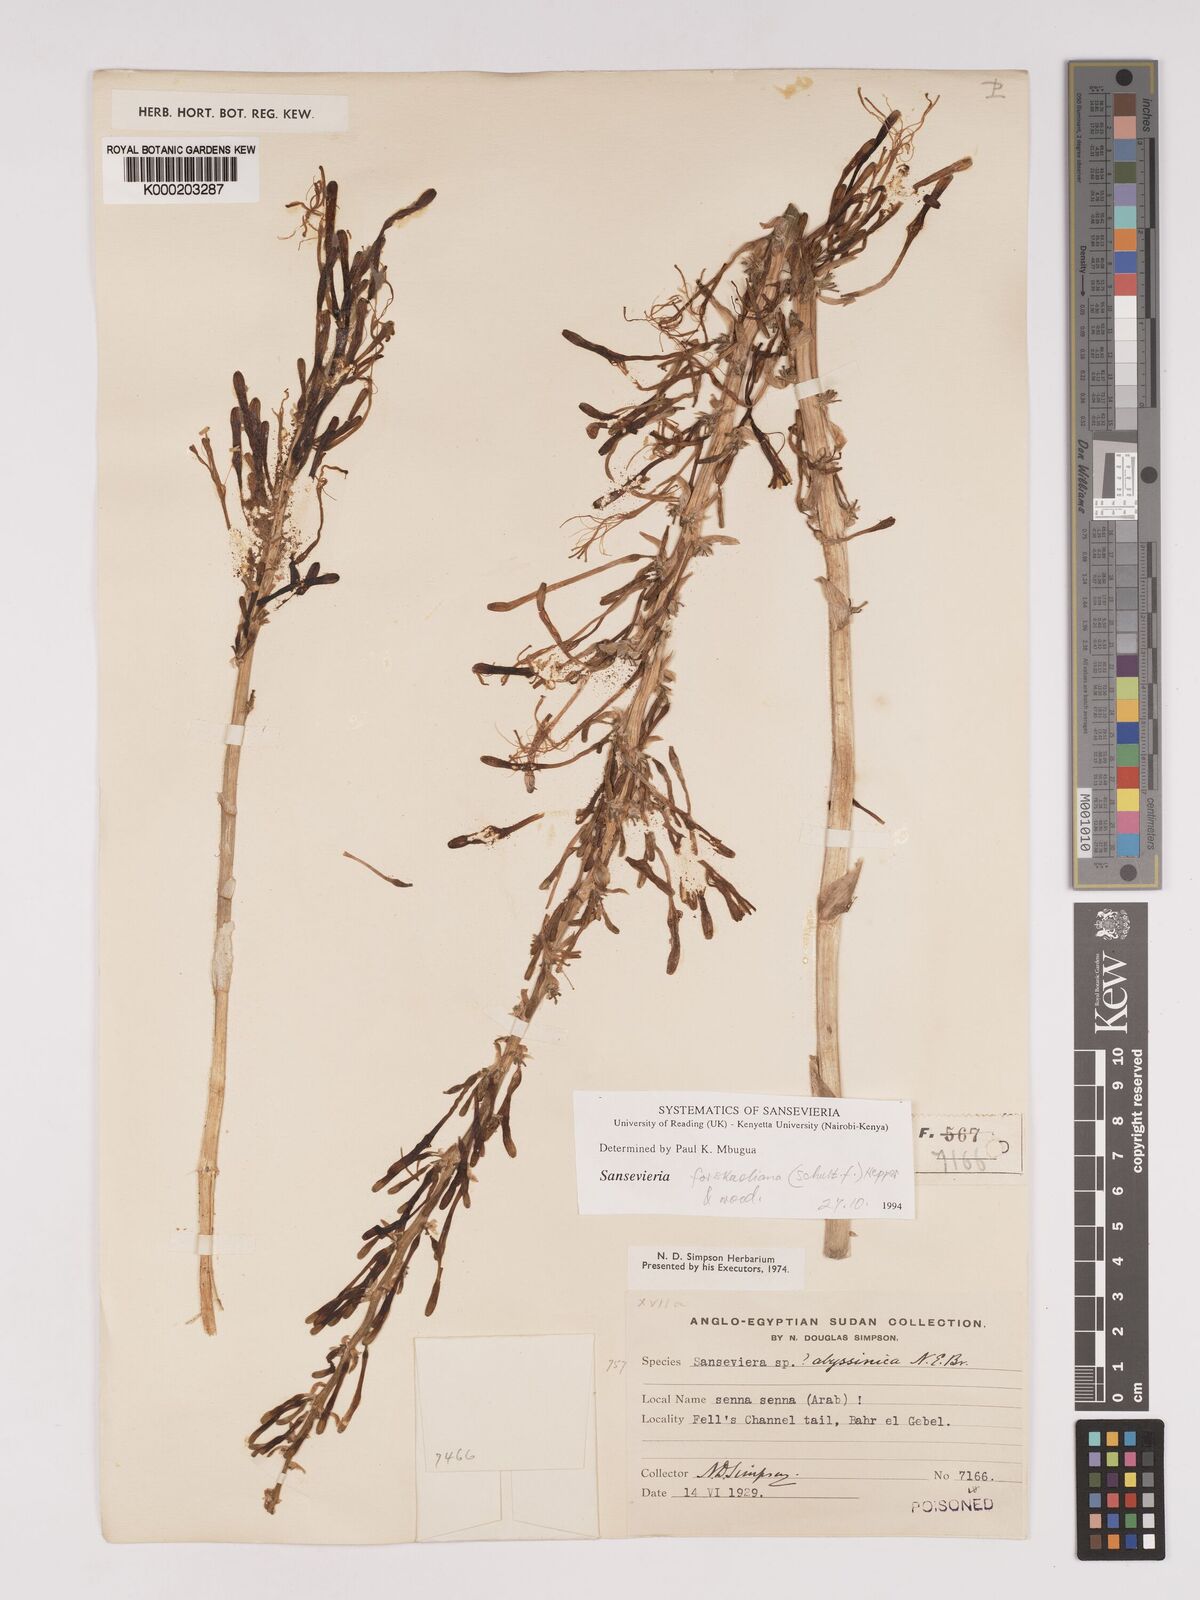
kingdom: Plantae
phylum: Tracheophyta
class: Liliopsida
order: Asparagales
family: Asparagaceae
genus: Dracaena
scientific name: Dracaena forskaliana
